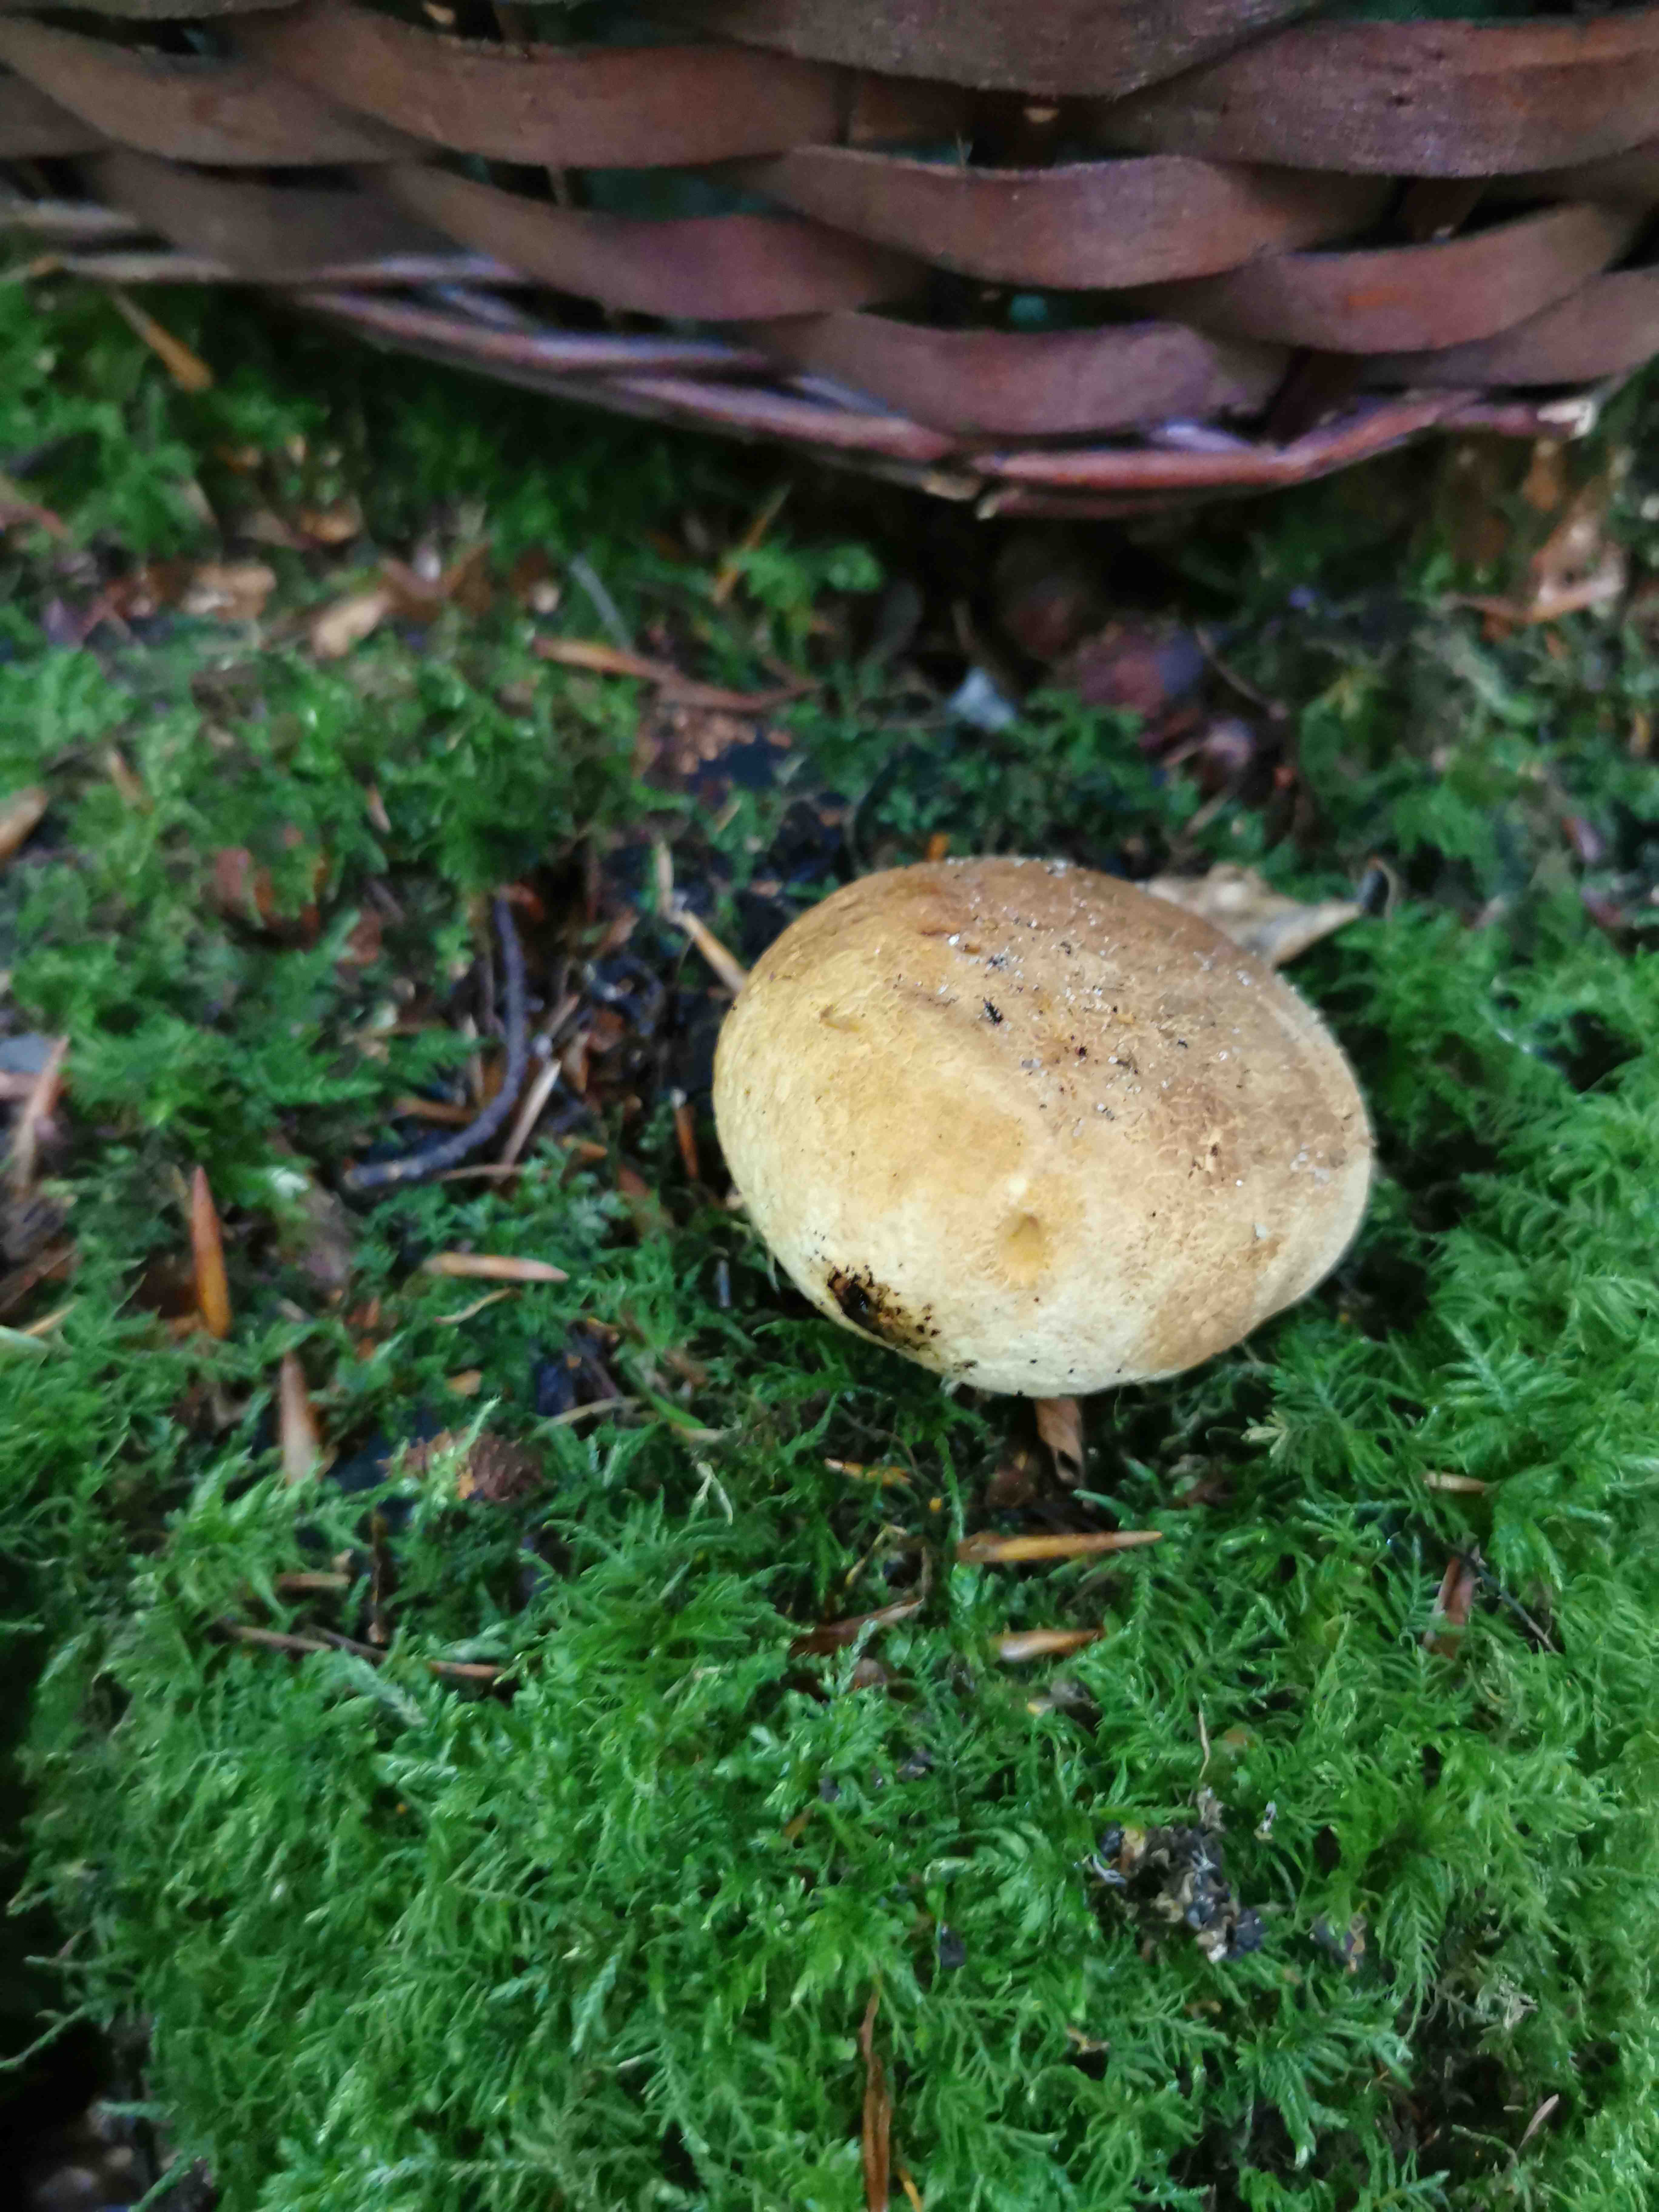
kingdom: Fungi
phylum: Basidiomycota
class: Agaricomycetes
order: Boletales
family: Sclerodermataceae
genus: Scleroderma
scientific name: Scleroderma citrinum
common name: almindelig bruskbold
